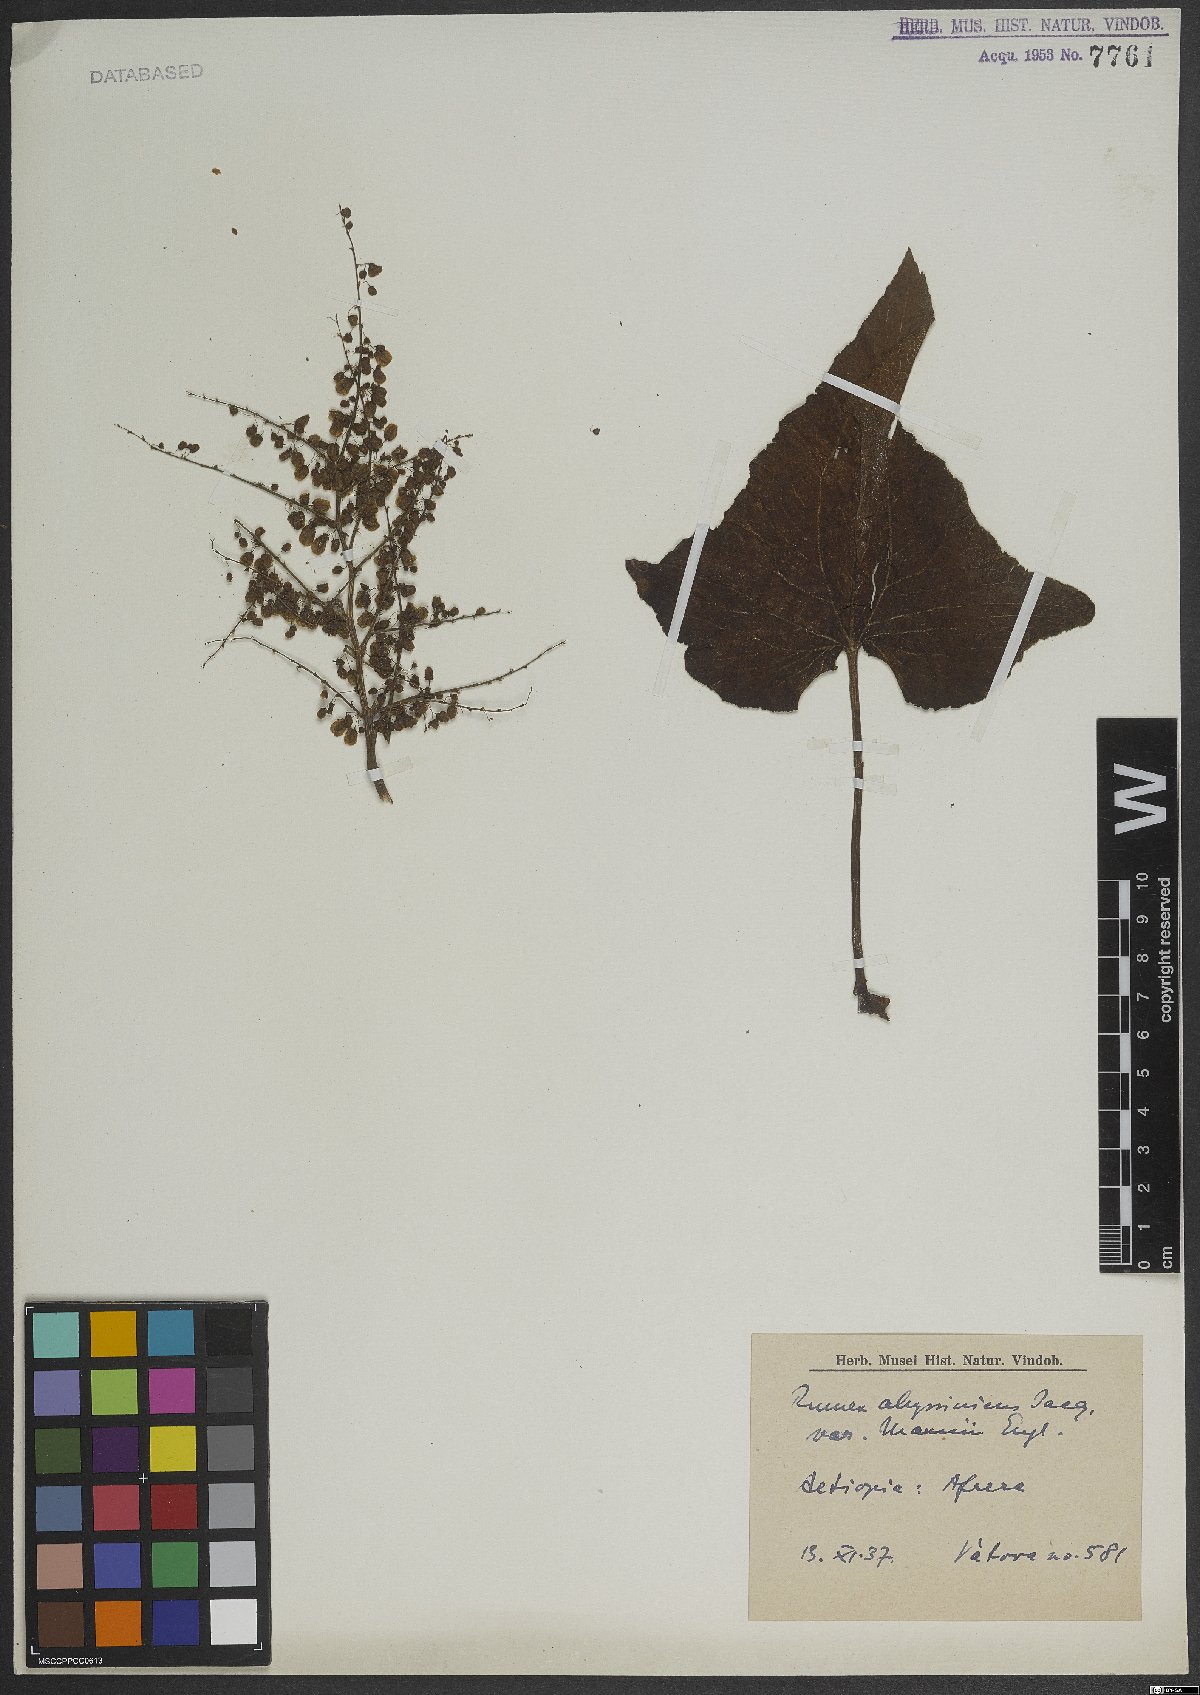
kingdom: Plantae
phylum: Tracheophyta
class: Magnoliopsida
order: Caryophyllales
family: Polygonaceae
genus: Rumex
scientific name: Rumex abyssinicus
